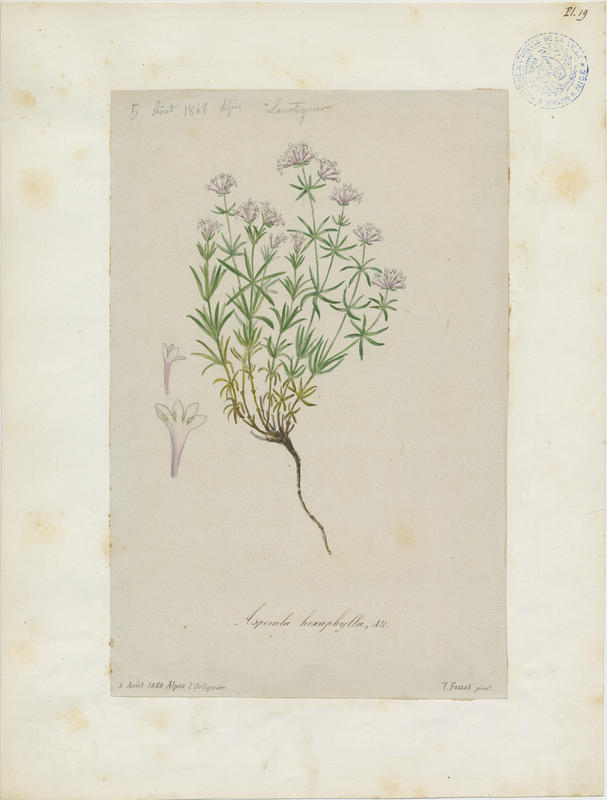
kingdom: Plantae
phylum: Tracheophyta
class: Magnoliopsida
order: Gentianales
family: Rubiaceae
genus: Hexaphylla
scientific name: Hexaphylla allionii
